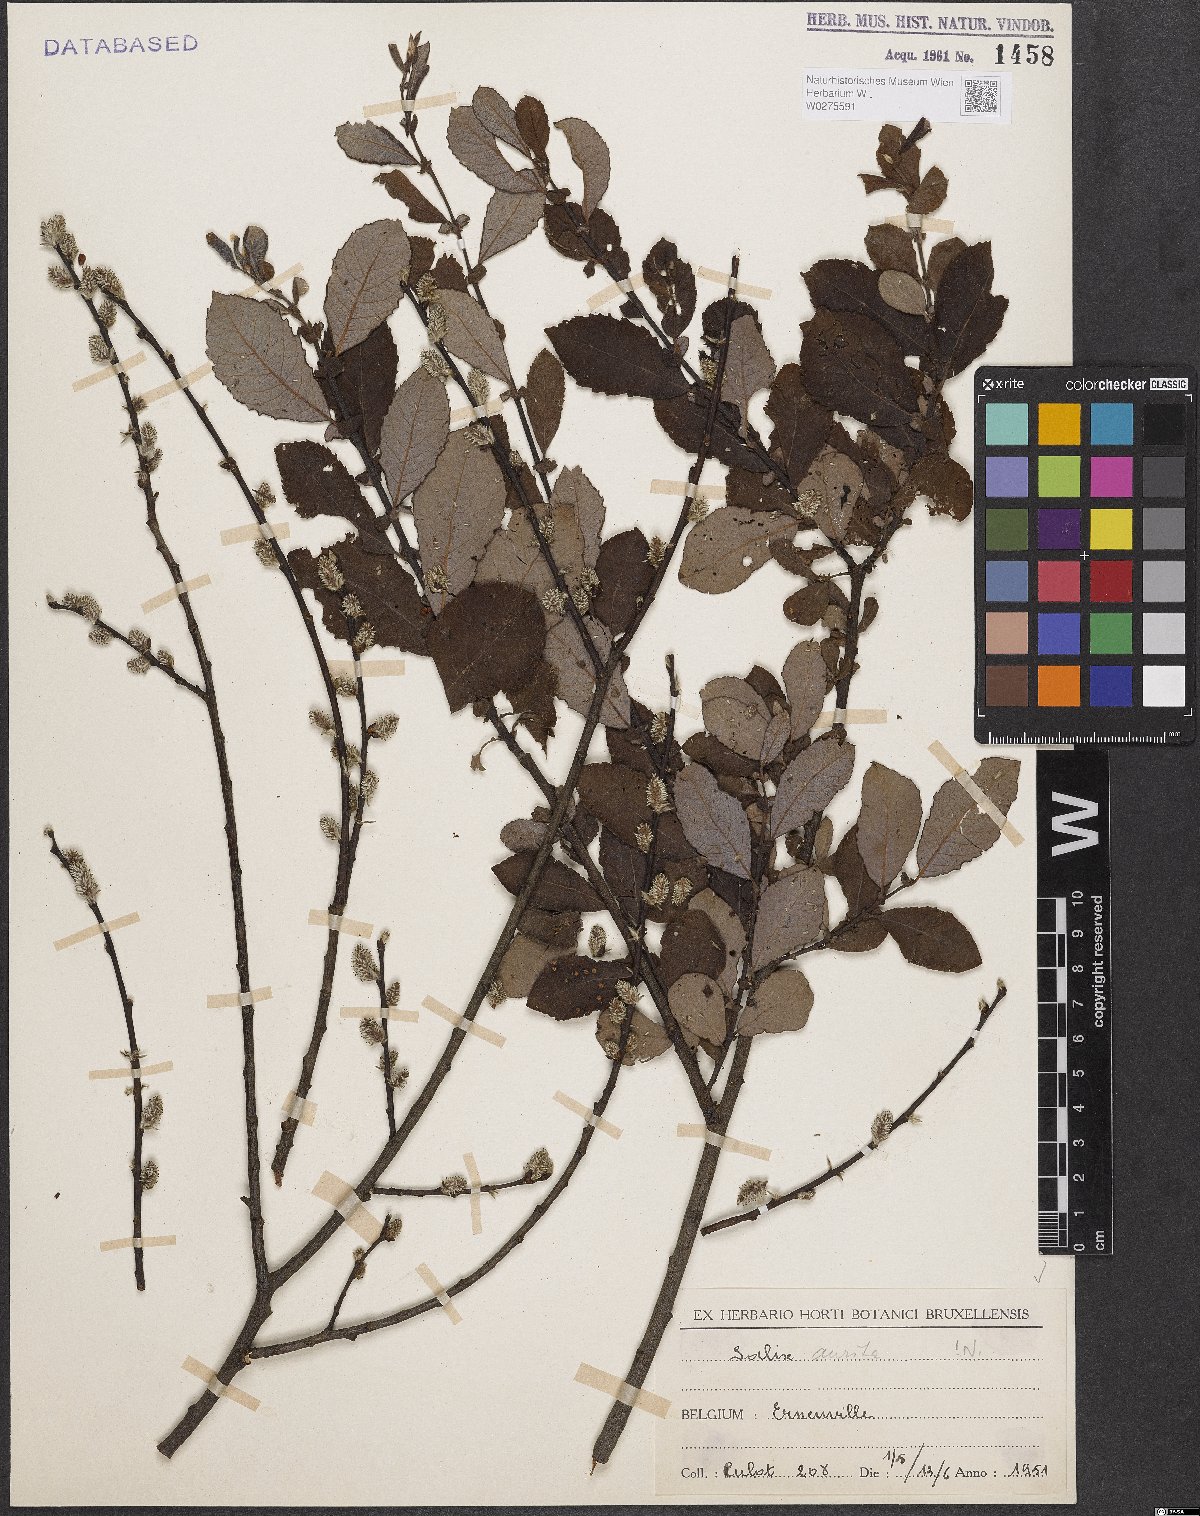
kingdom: Plantae
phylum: Tracheophyta
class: Magnoliopsida
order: Malpighiales
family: Salicaceae
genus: Salix
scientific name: Salix aurita
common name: Eared willow
